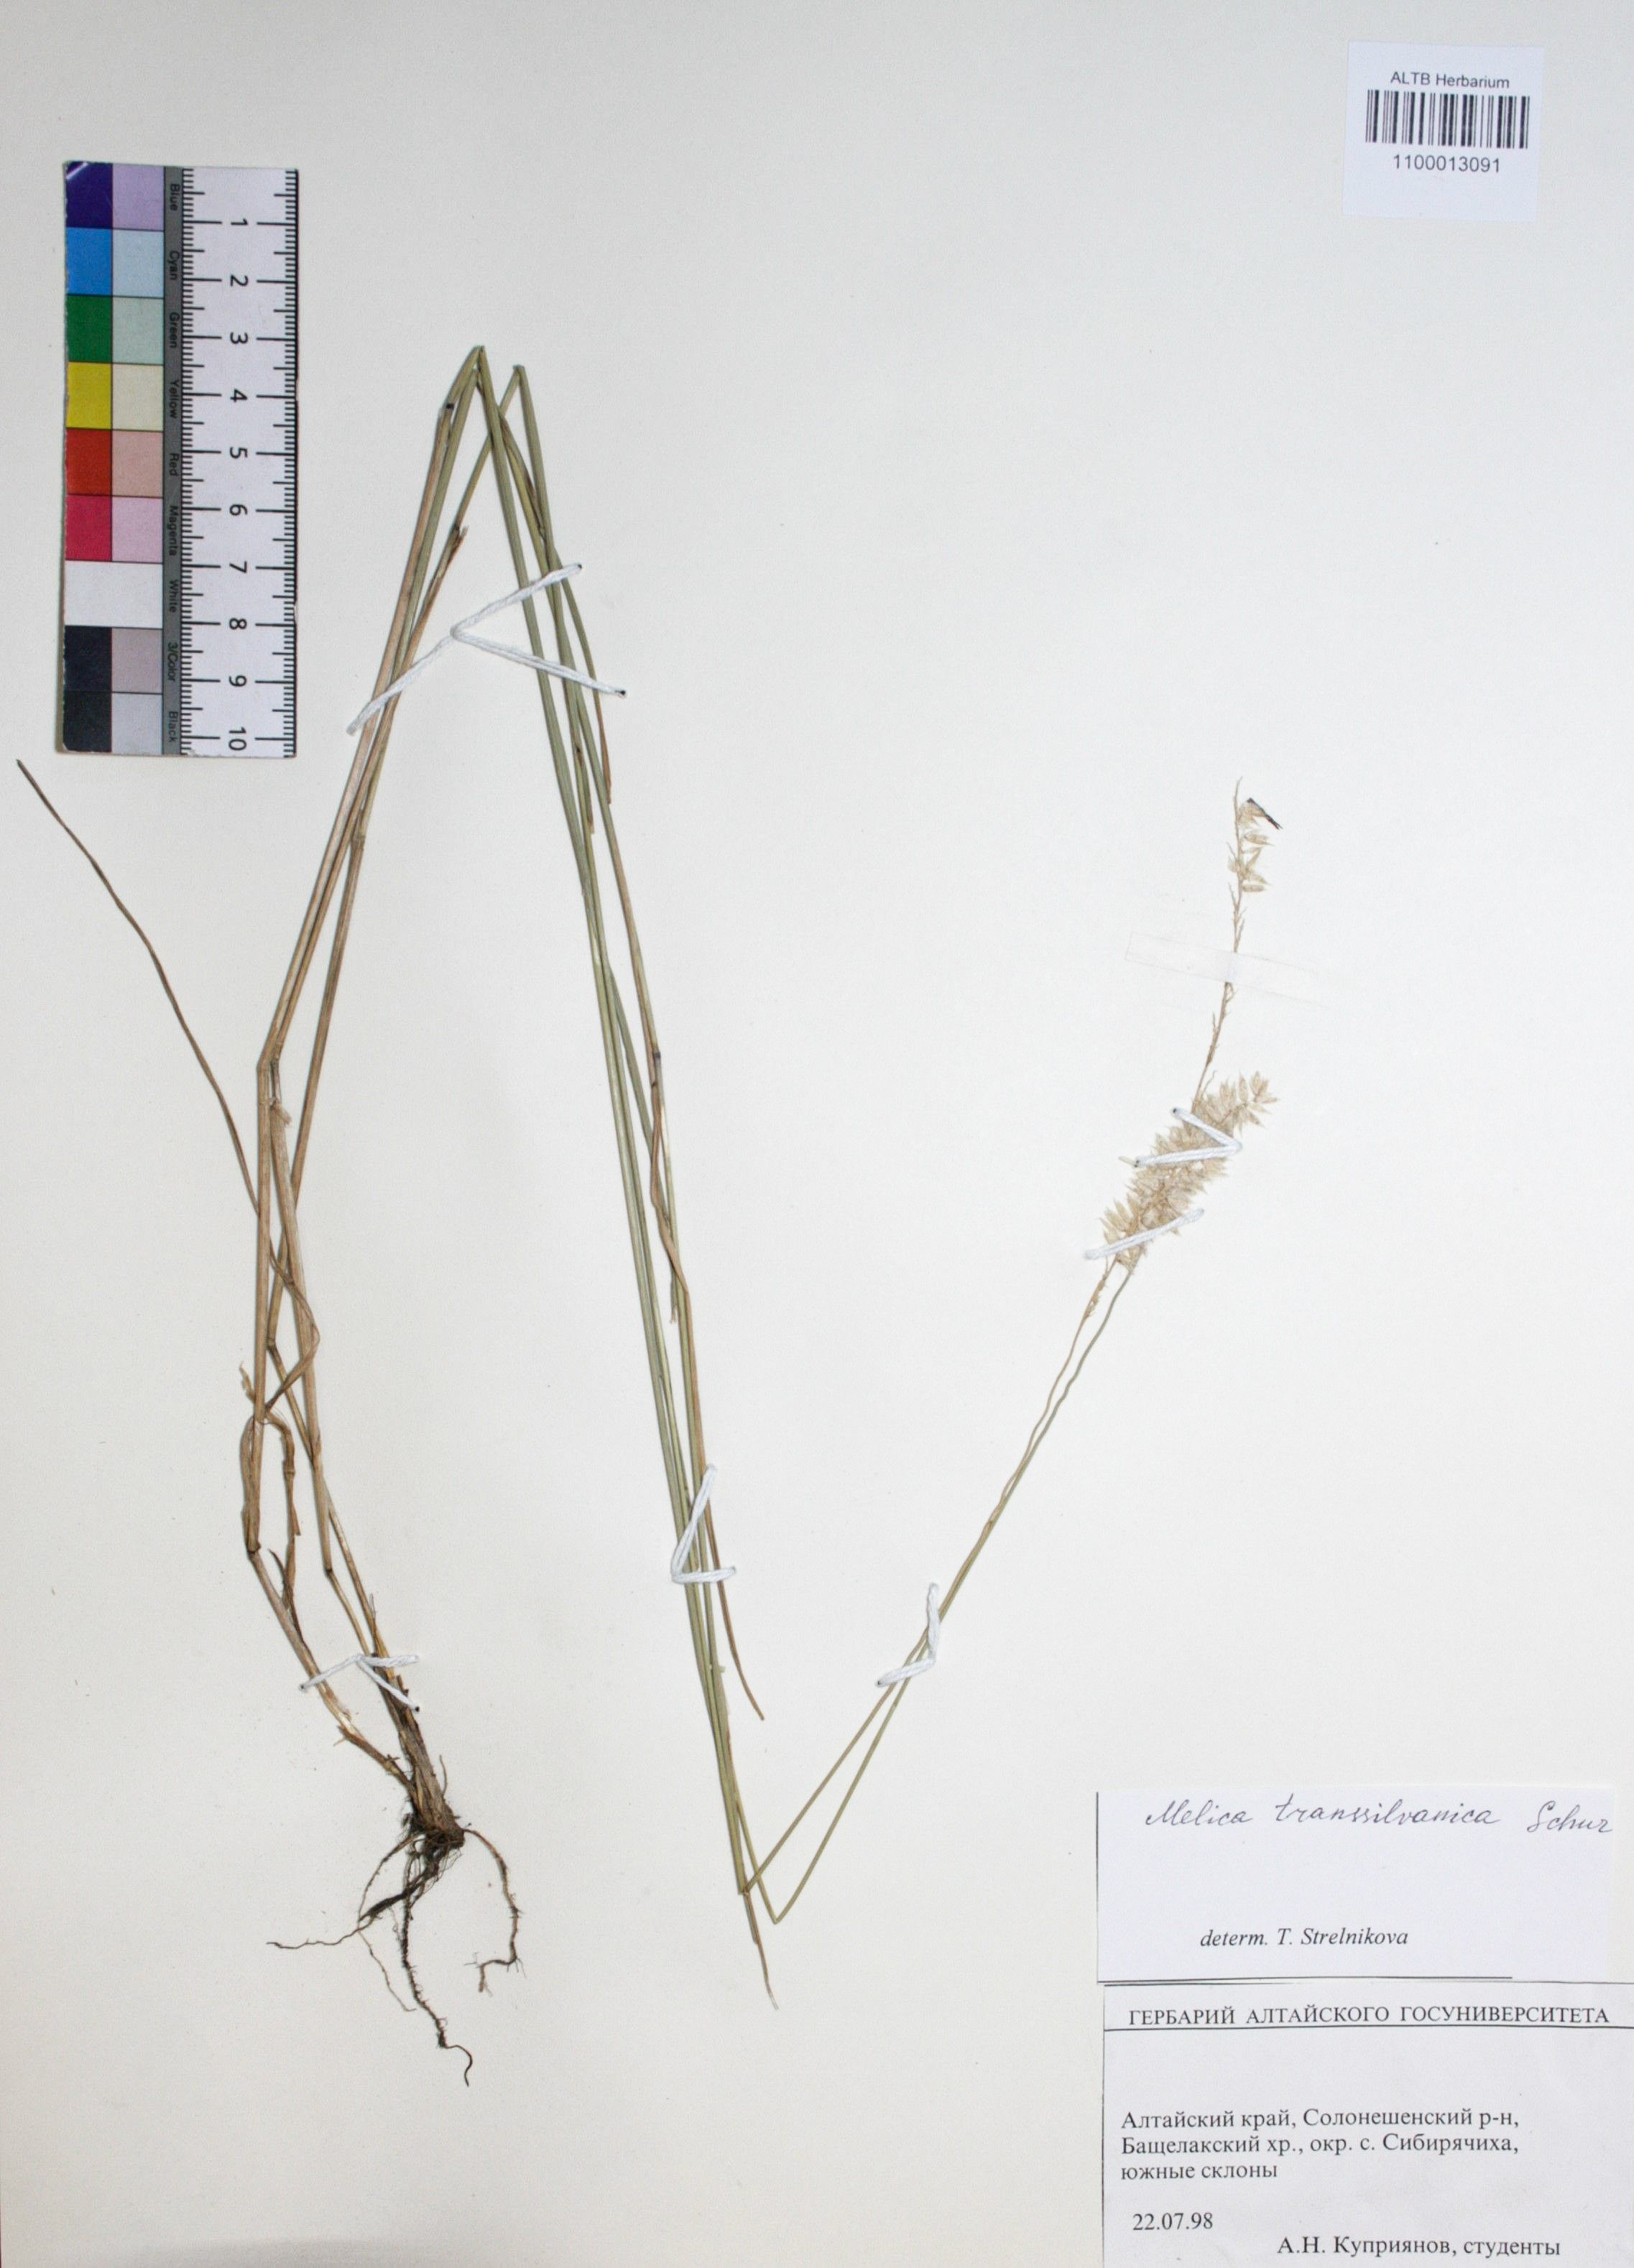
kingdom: Plantae
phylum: Tracheophyta
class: Liliopsida
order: Poales
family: Poaceae
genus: Melica
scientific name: Melica transsilvanica
